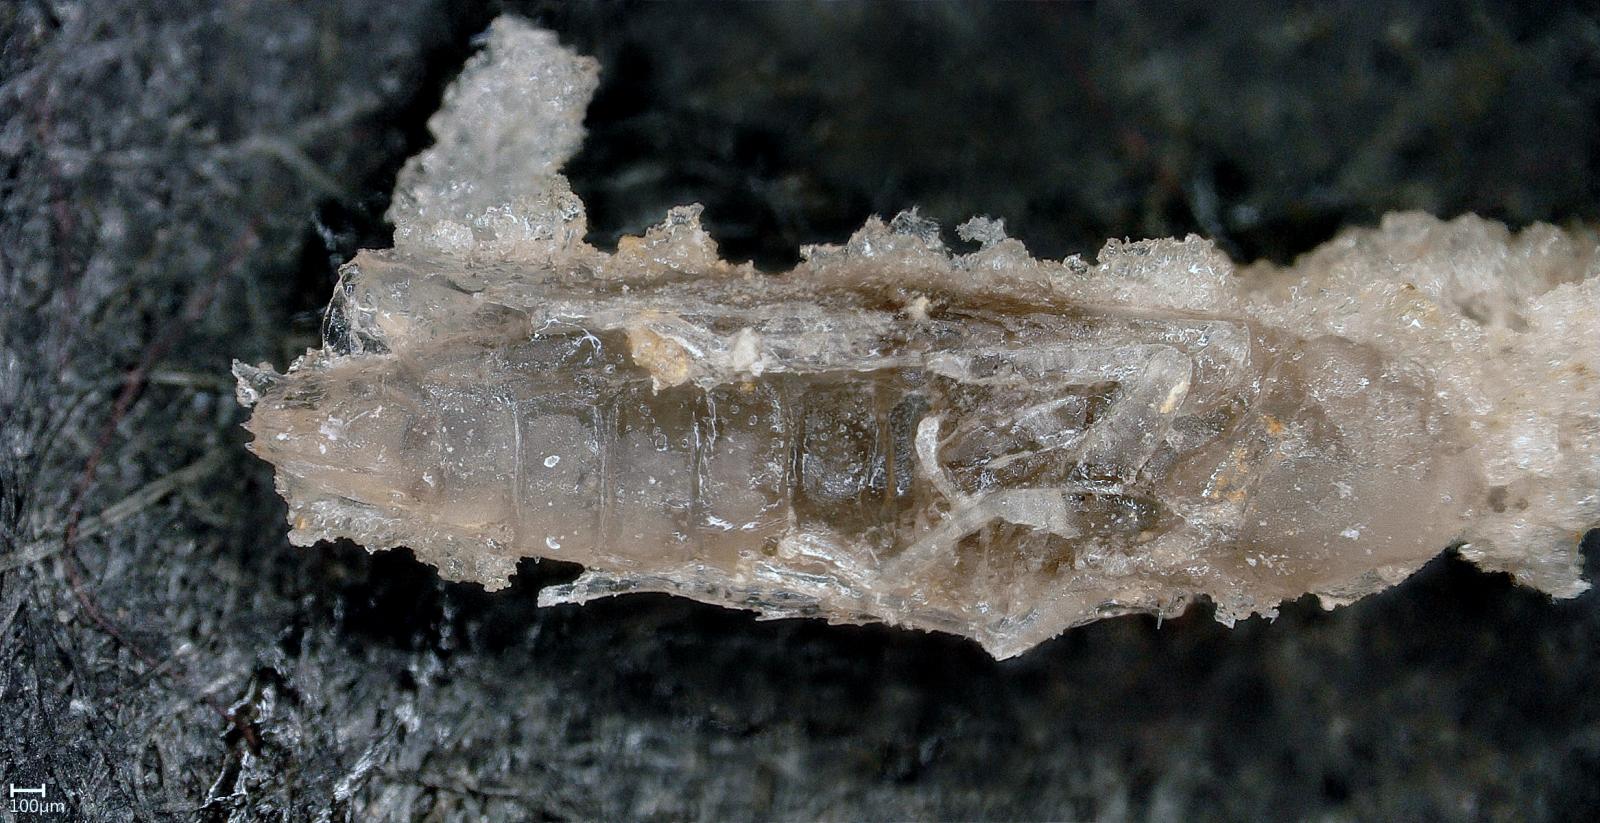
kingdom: Animalia
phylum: Arthropoda
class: Insecta
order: Hemiptera
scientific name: Hemiptera
